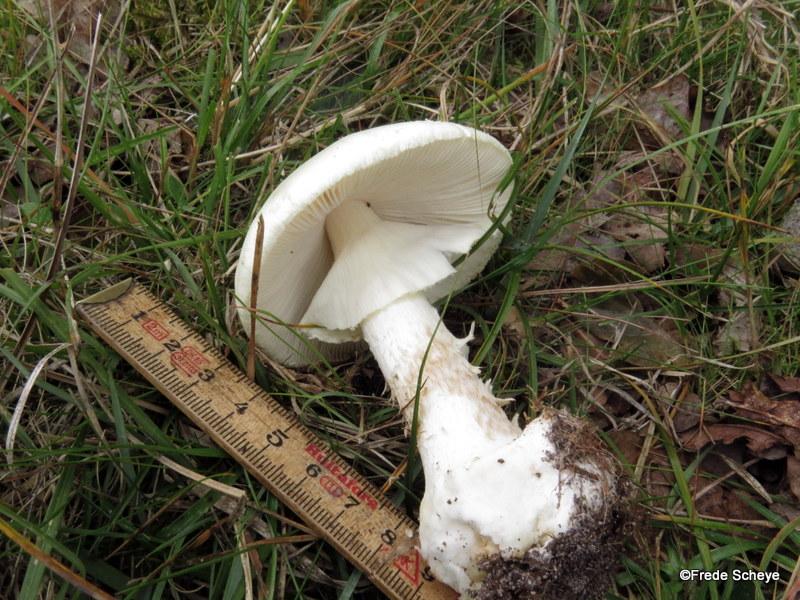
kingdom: Fungi
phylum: Basidiomycota
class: Agaricomycetes
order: Agaricales
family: Amanitaceae
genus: Amanita
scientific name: Amanita citrina
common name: False death-cap
